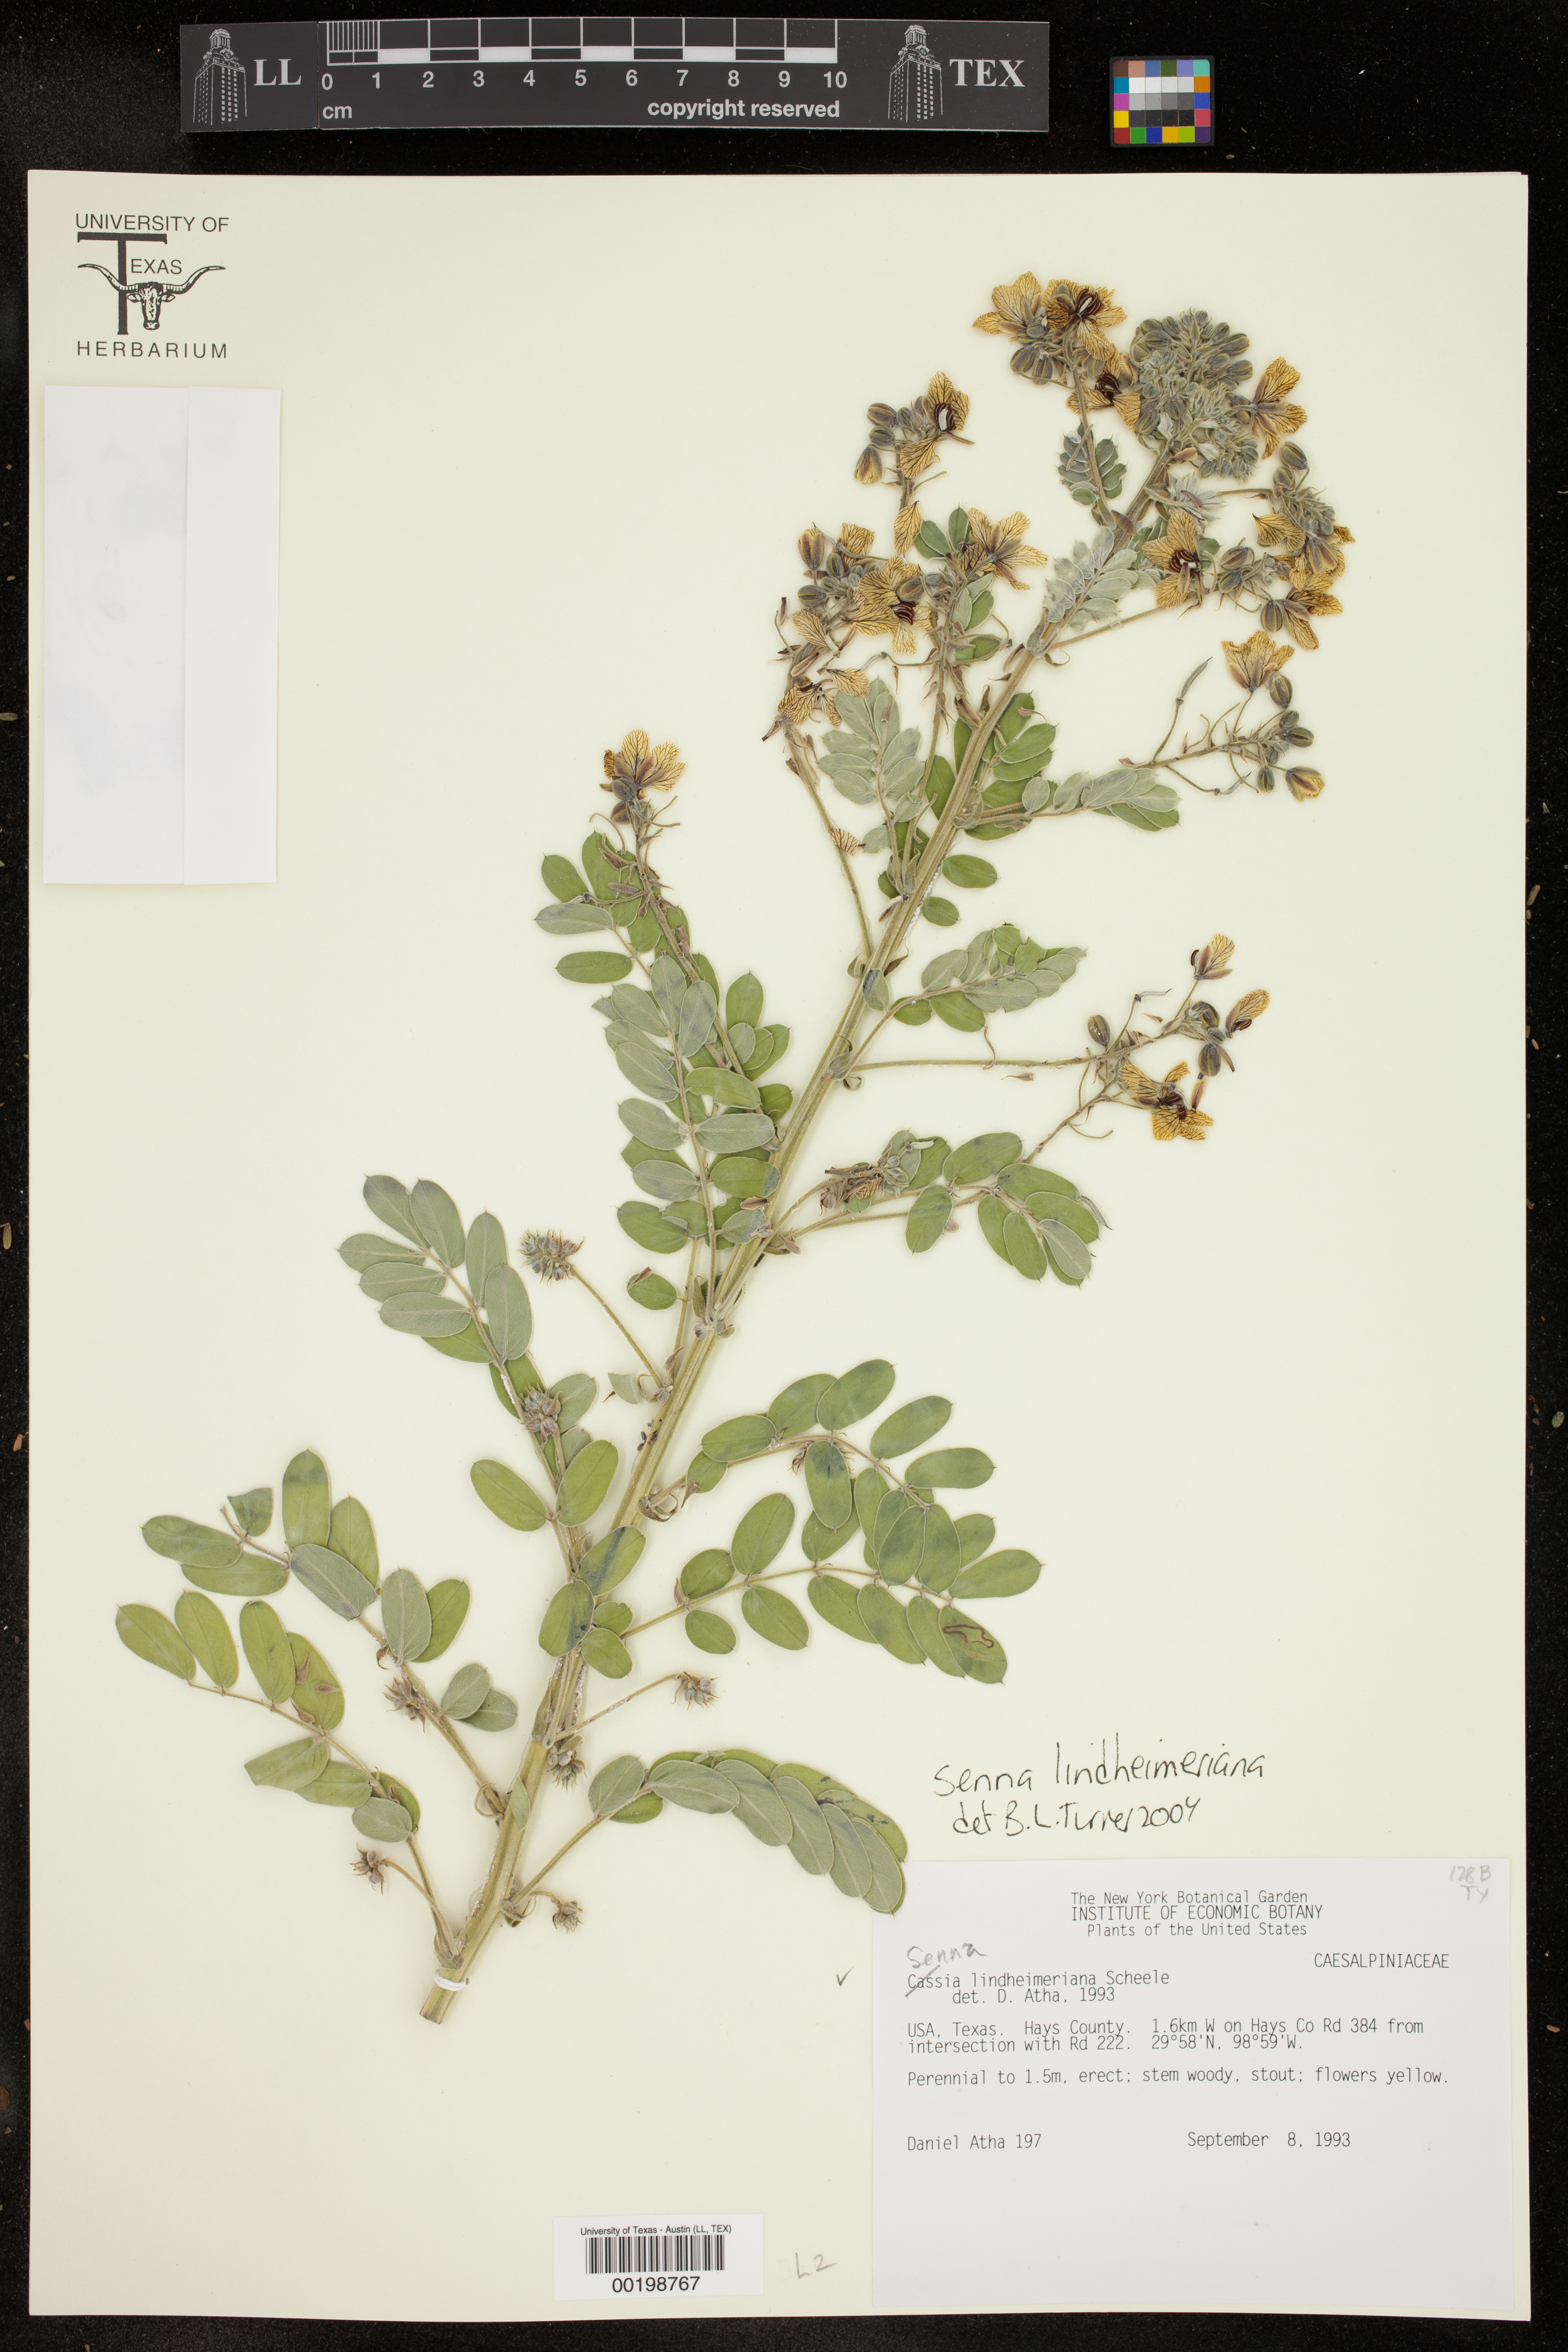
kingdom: Plantae
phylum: Tracheophyta
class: Magnoliopsida
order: Fabales
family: Fabaceae
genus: Senna
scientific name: Senna lindheimeriana
